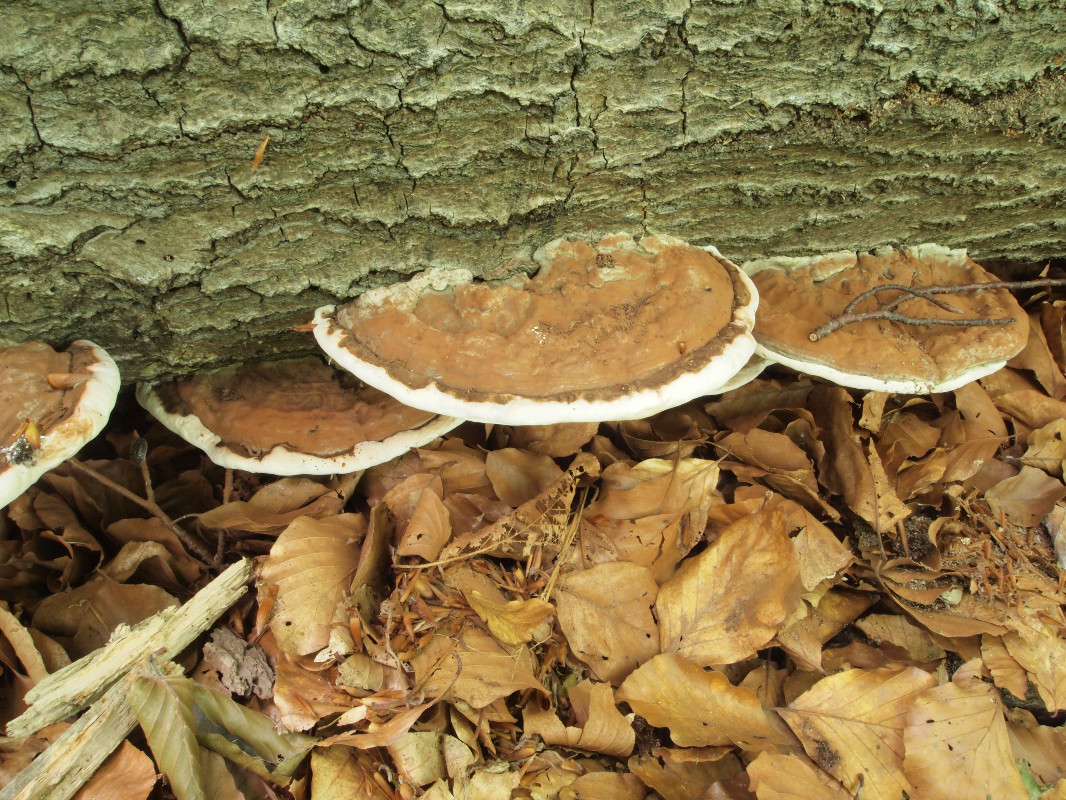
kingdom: Fungi
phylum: Basidiomycota
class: Agaricomycetes
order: Polyporales
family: Polyporaceae
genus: Ganoderma
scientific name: Ganoderma applanatum
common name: flad lakporesvamp
